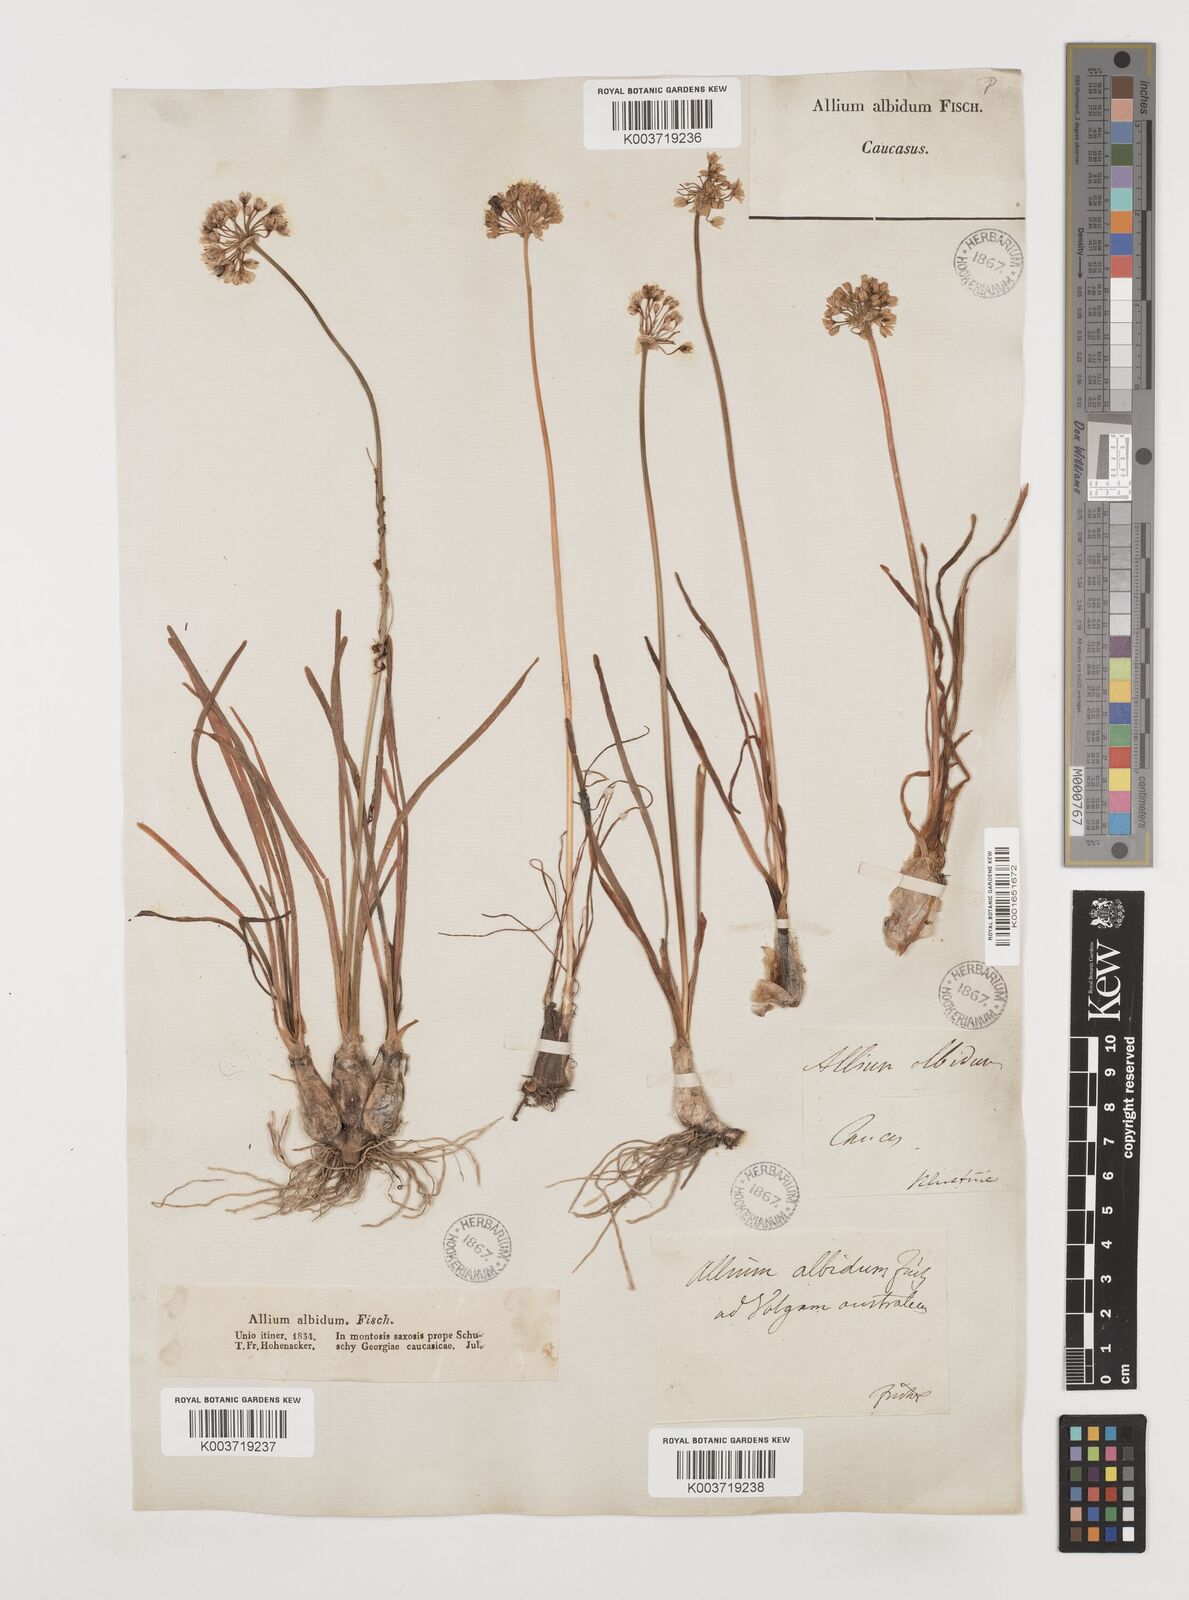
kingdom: Plantae
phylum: Tracheophyta
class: Liliopsida
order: Asparagales
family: Amaryllidaceae
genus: Allium
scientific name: Allium denudatum
